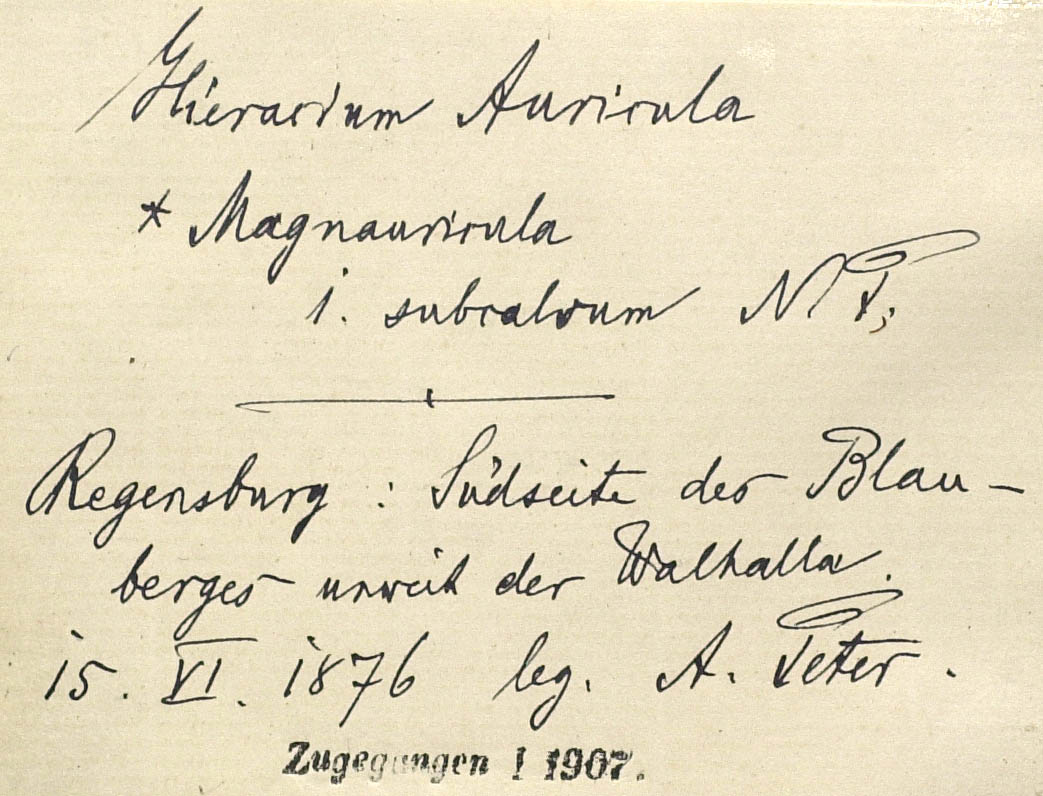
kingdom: Plantae
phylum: Tracheophyta
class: Magnoliopsida
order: Asterales
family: Asteraceae
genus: Pilosella
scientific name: Pilosella lactucella
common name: Glaucous fox-and-cubs
